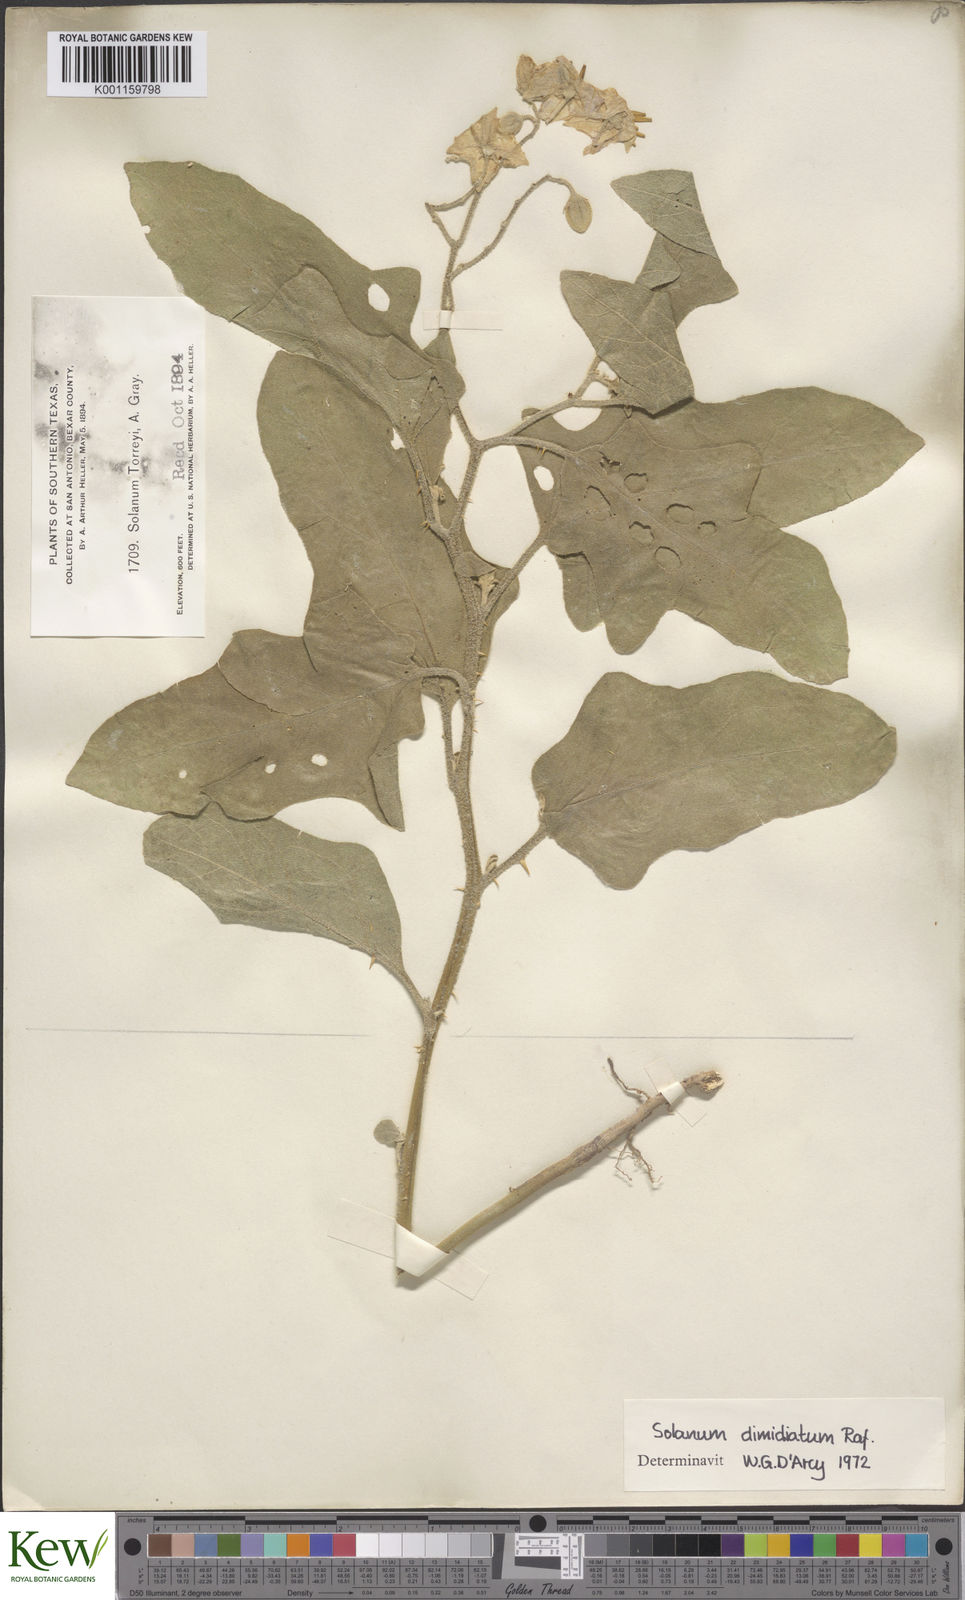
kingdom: Plantae
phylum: Tracheophyta
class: Magnoliopsida
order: Solanales
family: Solanaceae
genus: Solanum
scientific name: Solanum
